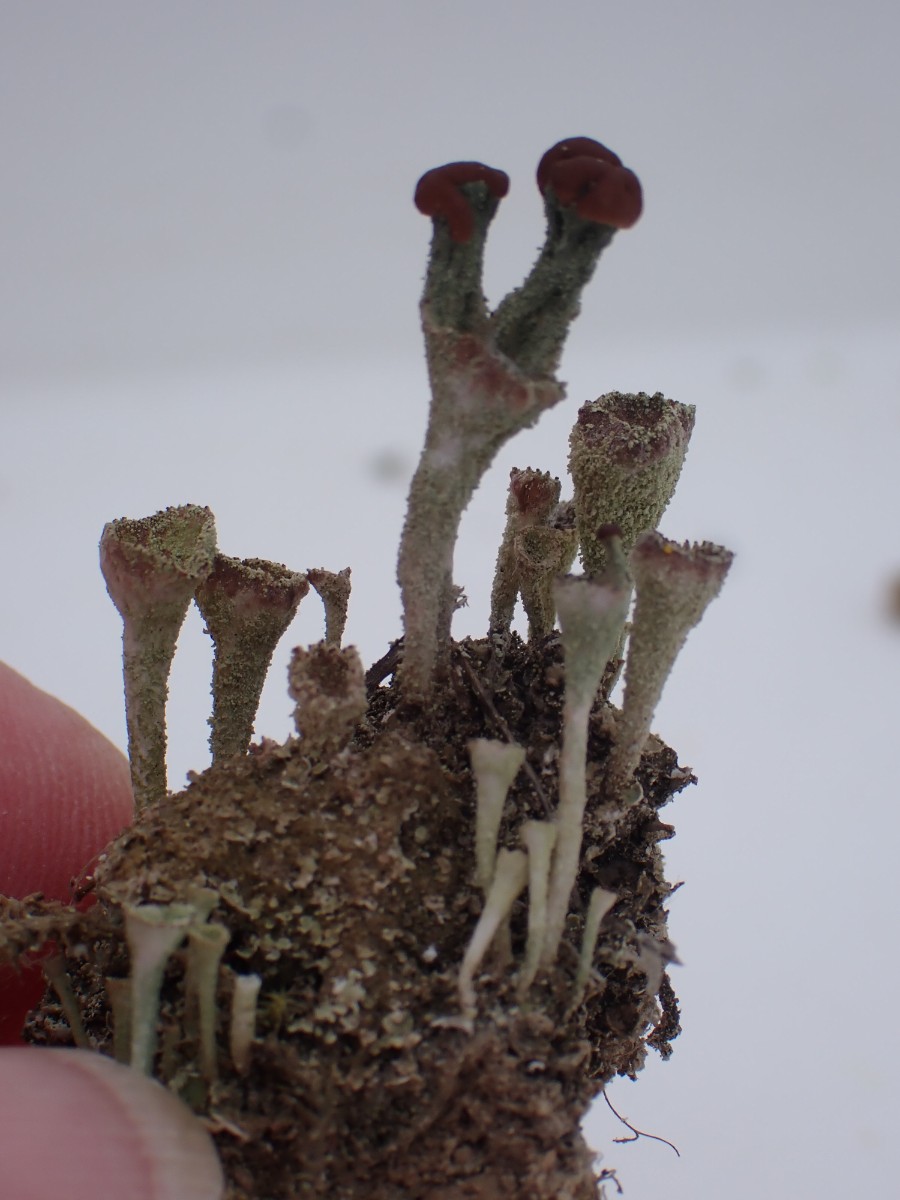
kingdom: Fungi
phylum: Ascomycota
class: Lecanoromycetes
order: Lecanorales
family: Cladoniaceae
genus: Cladonia
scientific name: Cladonia
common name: brungrøn bægerlav
